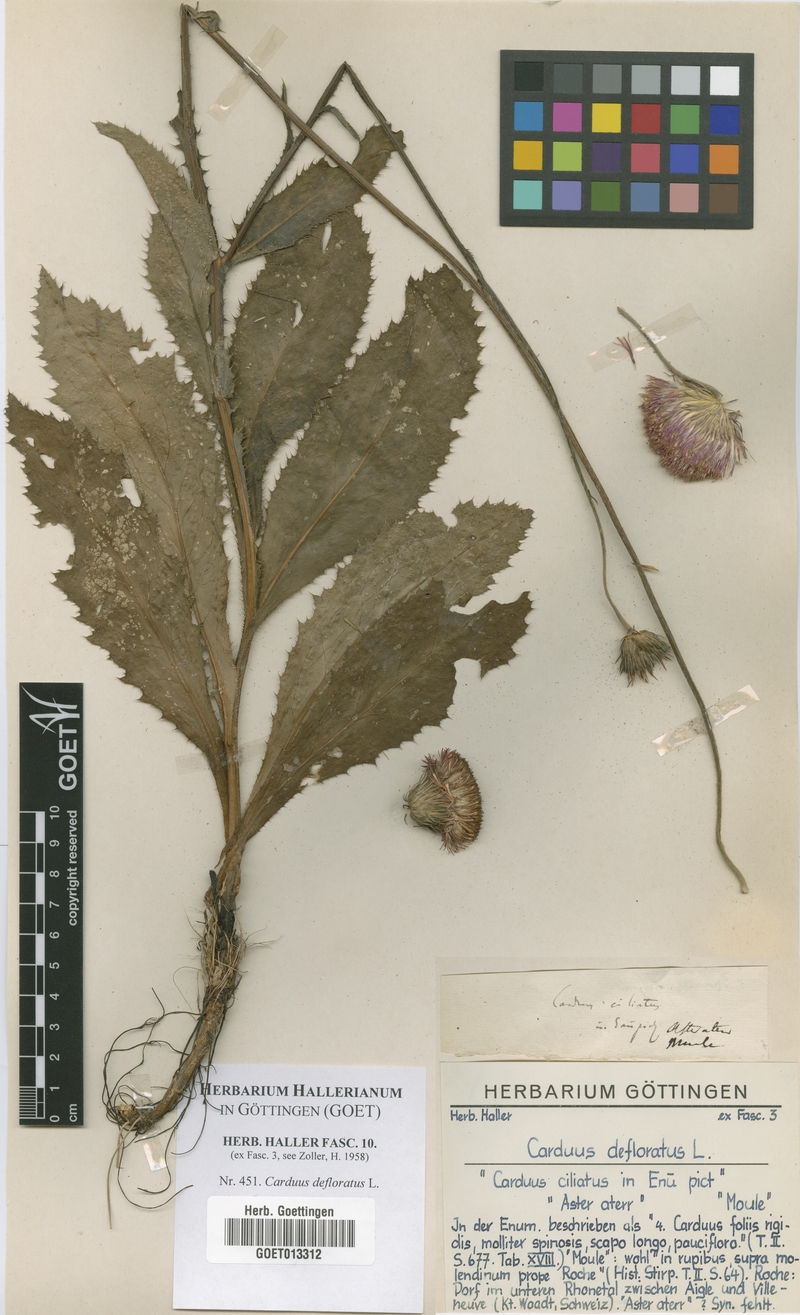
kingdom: Plantae
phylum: Tracheophyta
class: Magnoliopsida
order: Asterales
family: Asteraceae
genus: Carduus
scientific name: Carduus defloratus
